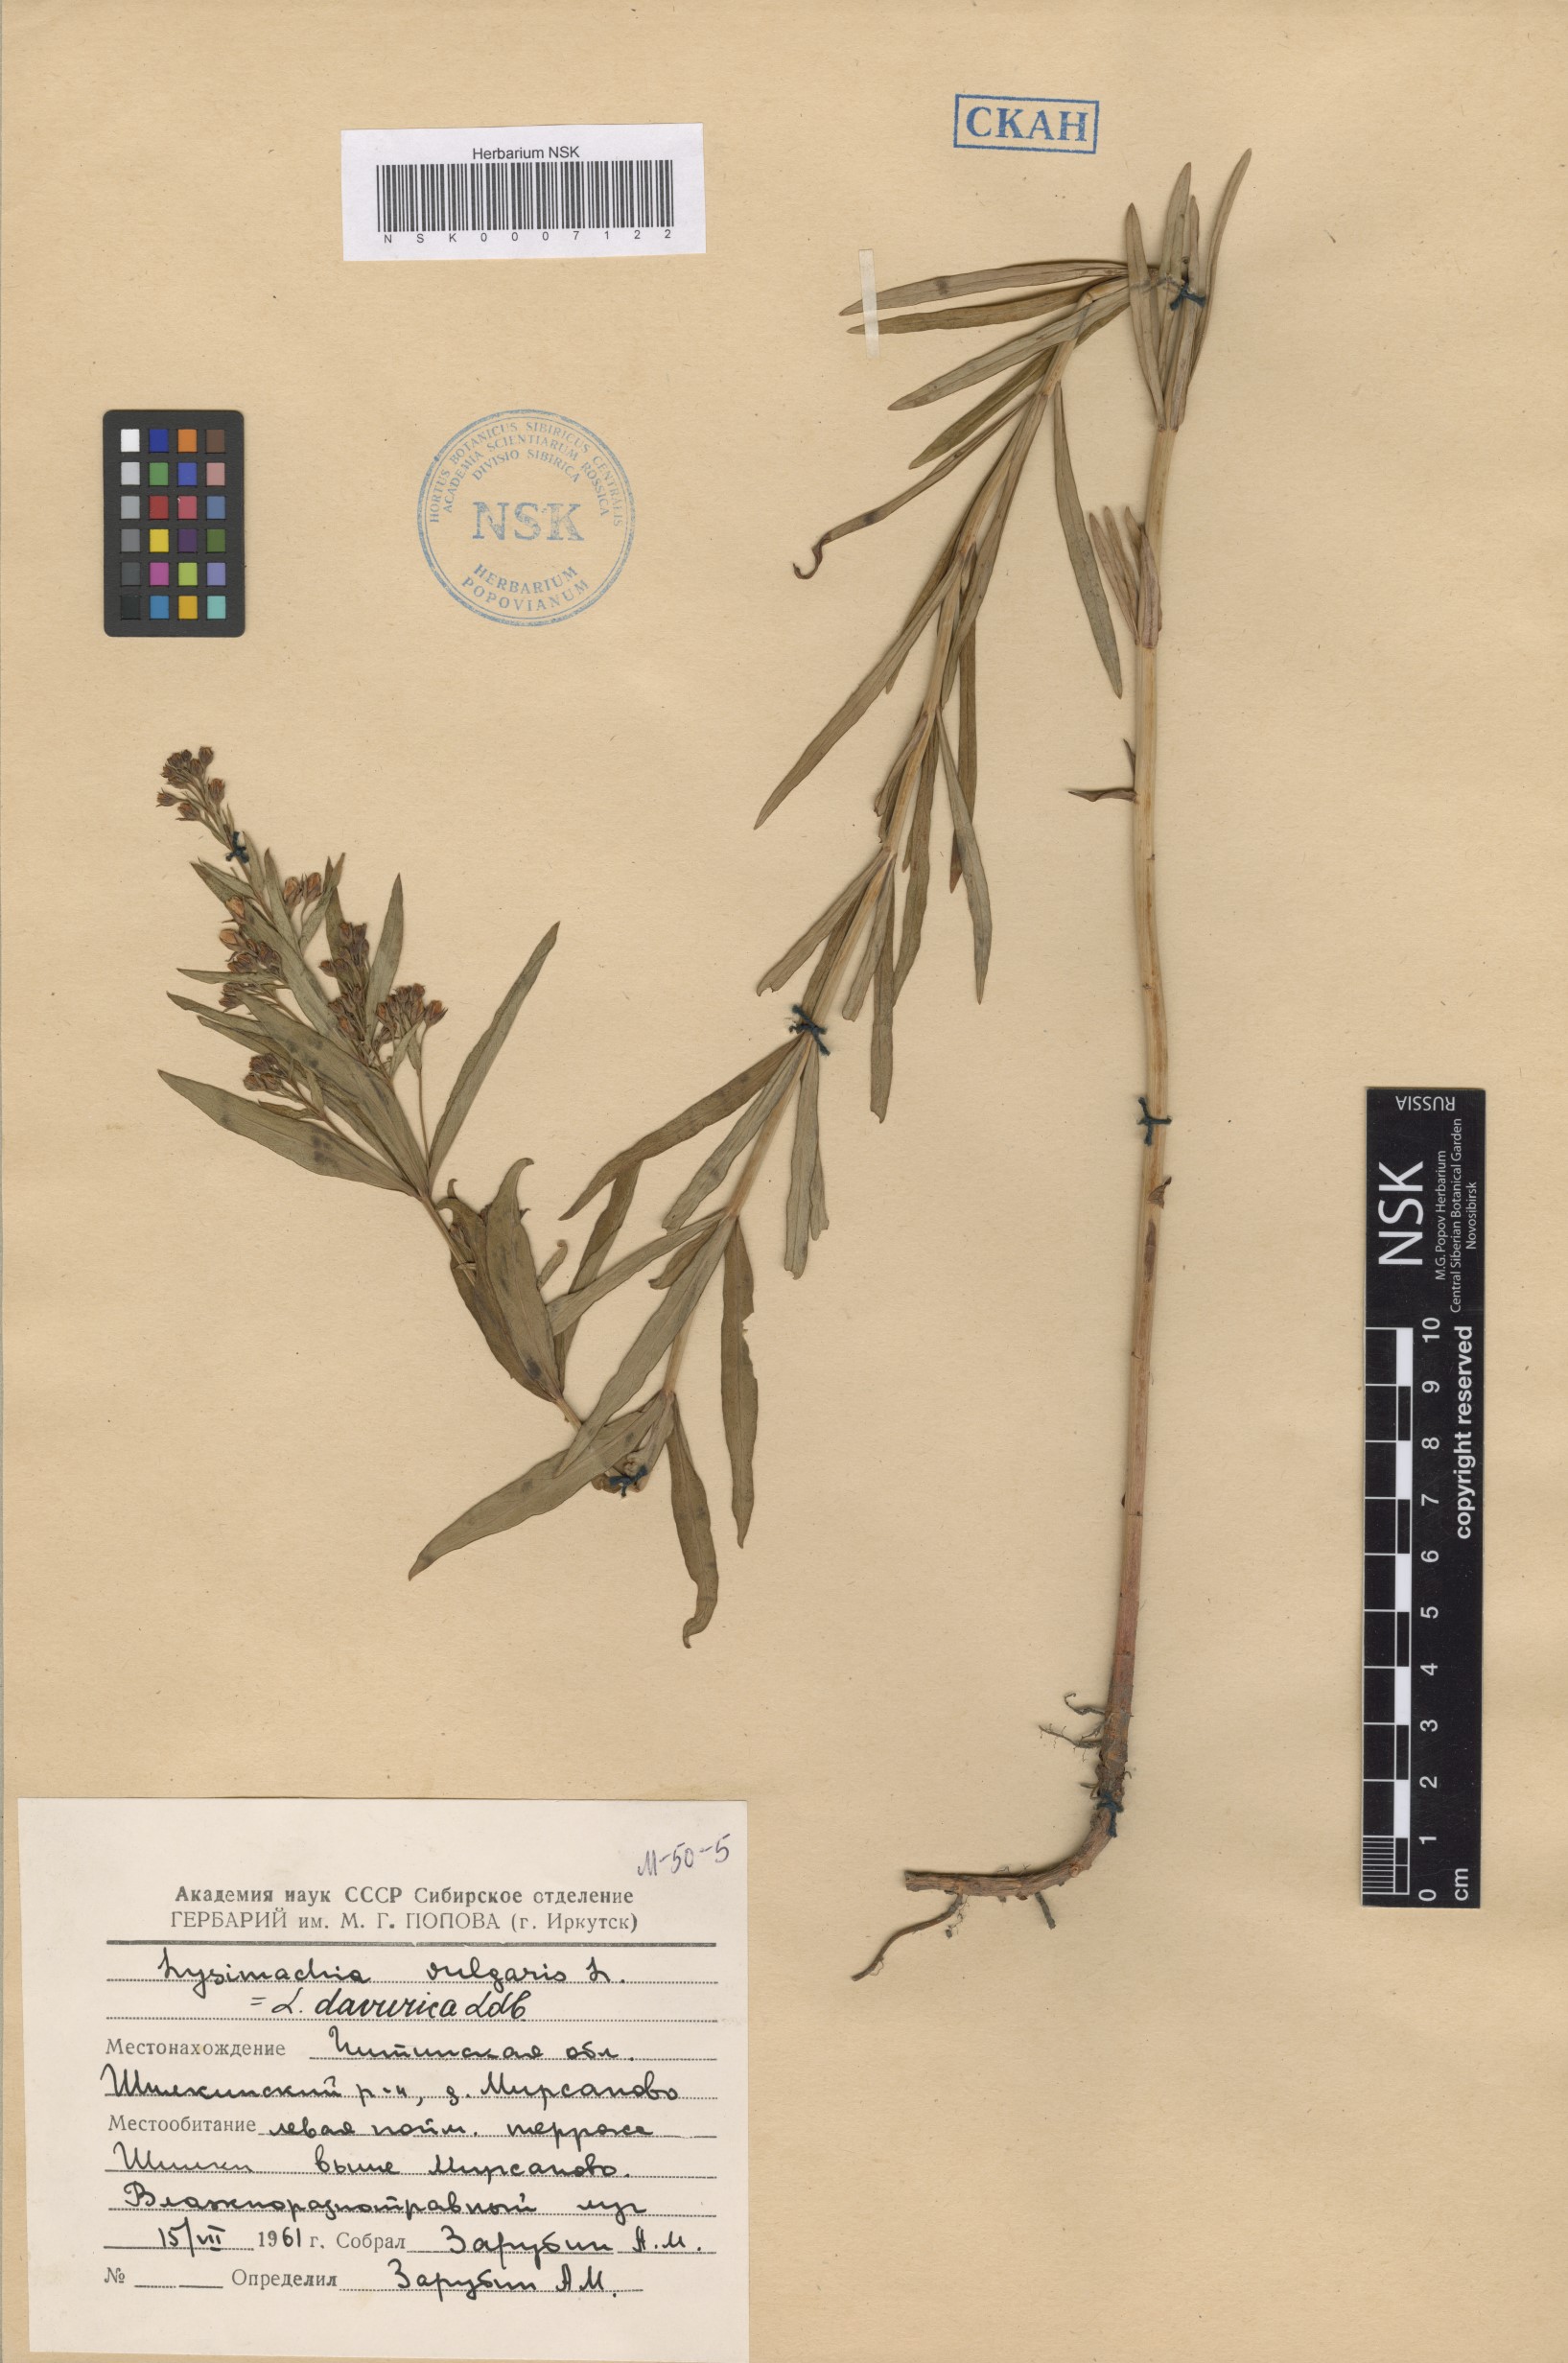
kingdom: Plantae
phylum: Tracheophyta
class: Magnoliopsida
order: Ericales
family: Primulaceae
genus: Lysimachia
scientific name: Lysimachia davurica
